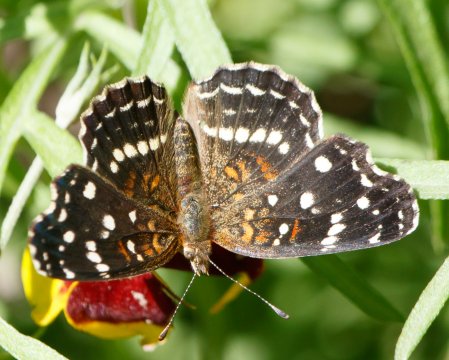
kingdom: Animalia
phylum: Arthropoda
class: Insecta
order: Lepidoptera
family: Nymphalidae
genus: Anthanassa
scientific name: Anthanassa texana
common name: Texan Crescent
